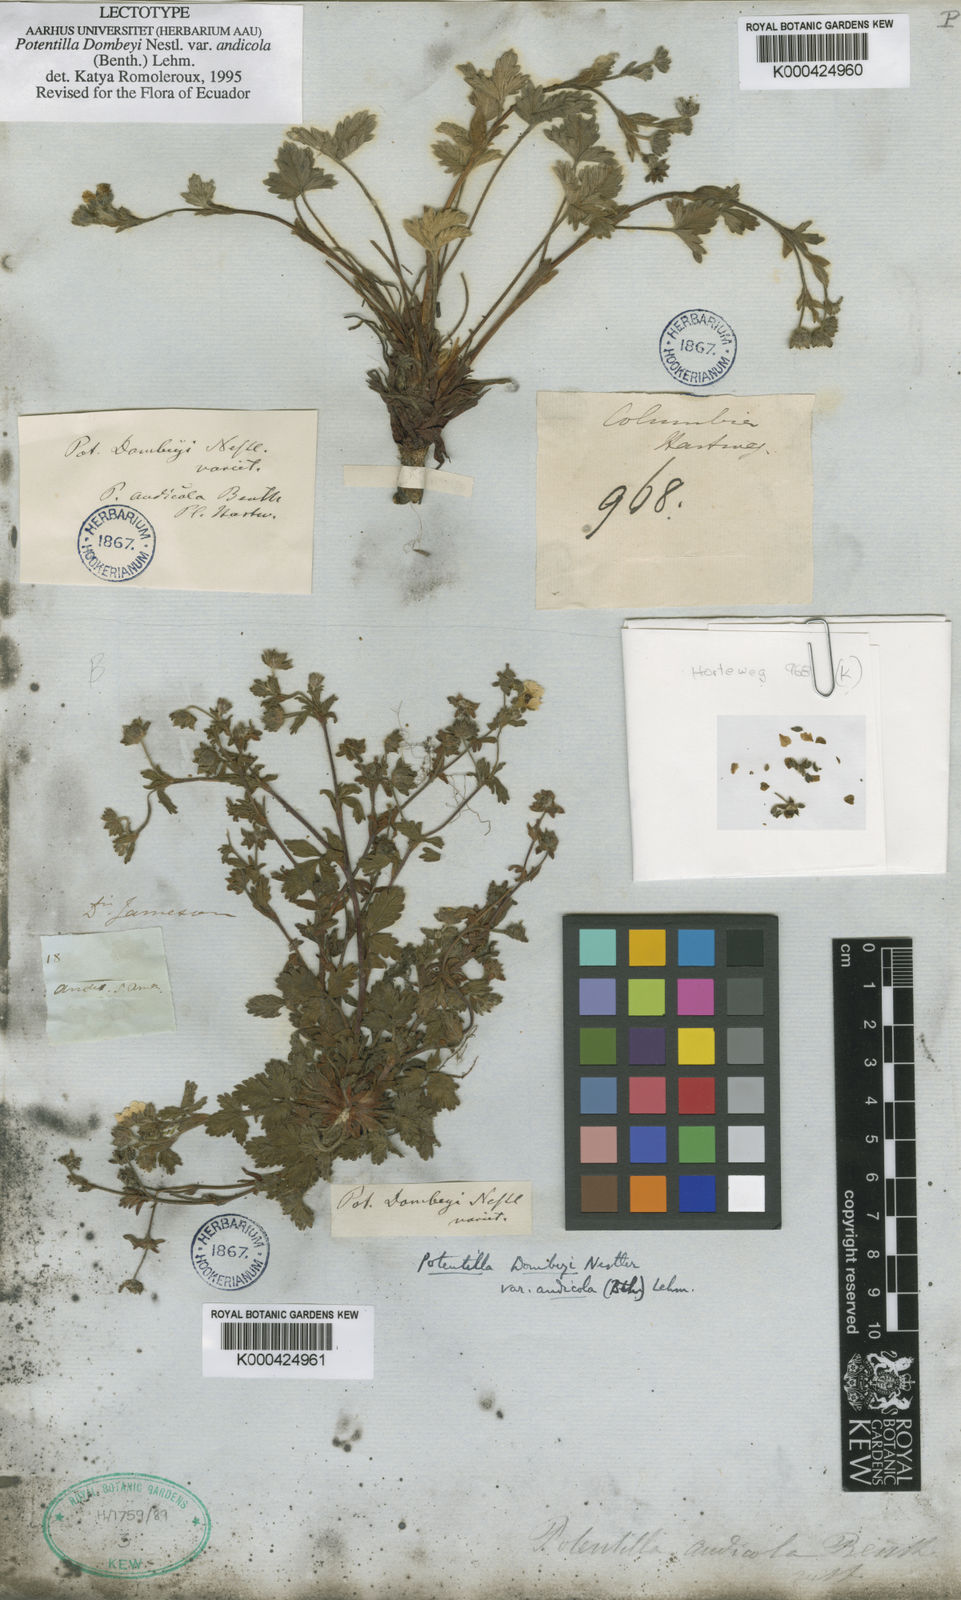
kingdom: Plantae
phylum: Tracheophyta
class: Magnoliopsida
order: Rosales
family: Rosaceae
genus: Potentilla
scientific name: Potentilla dombeyi
